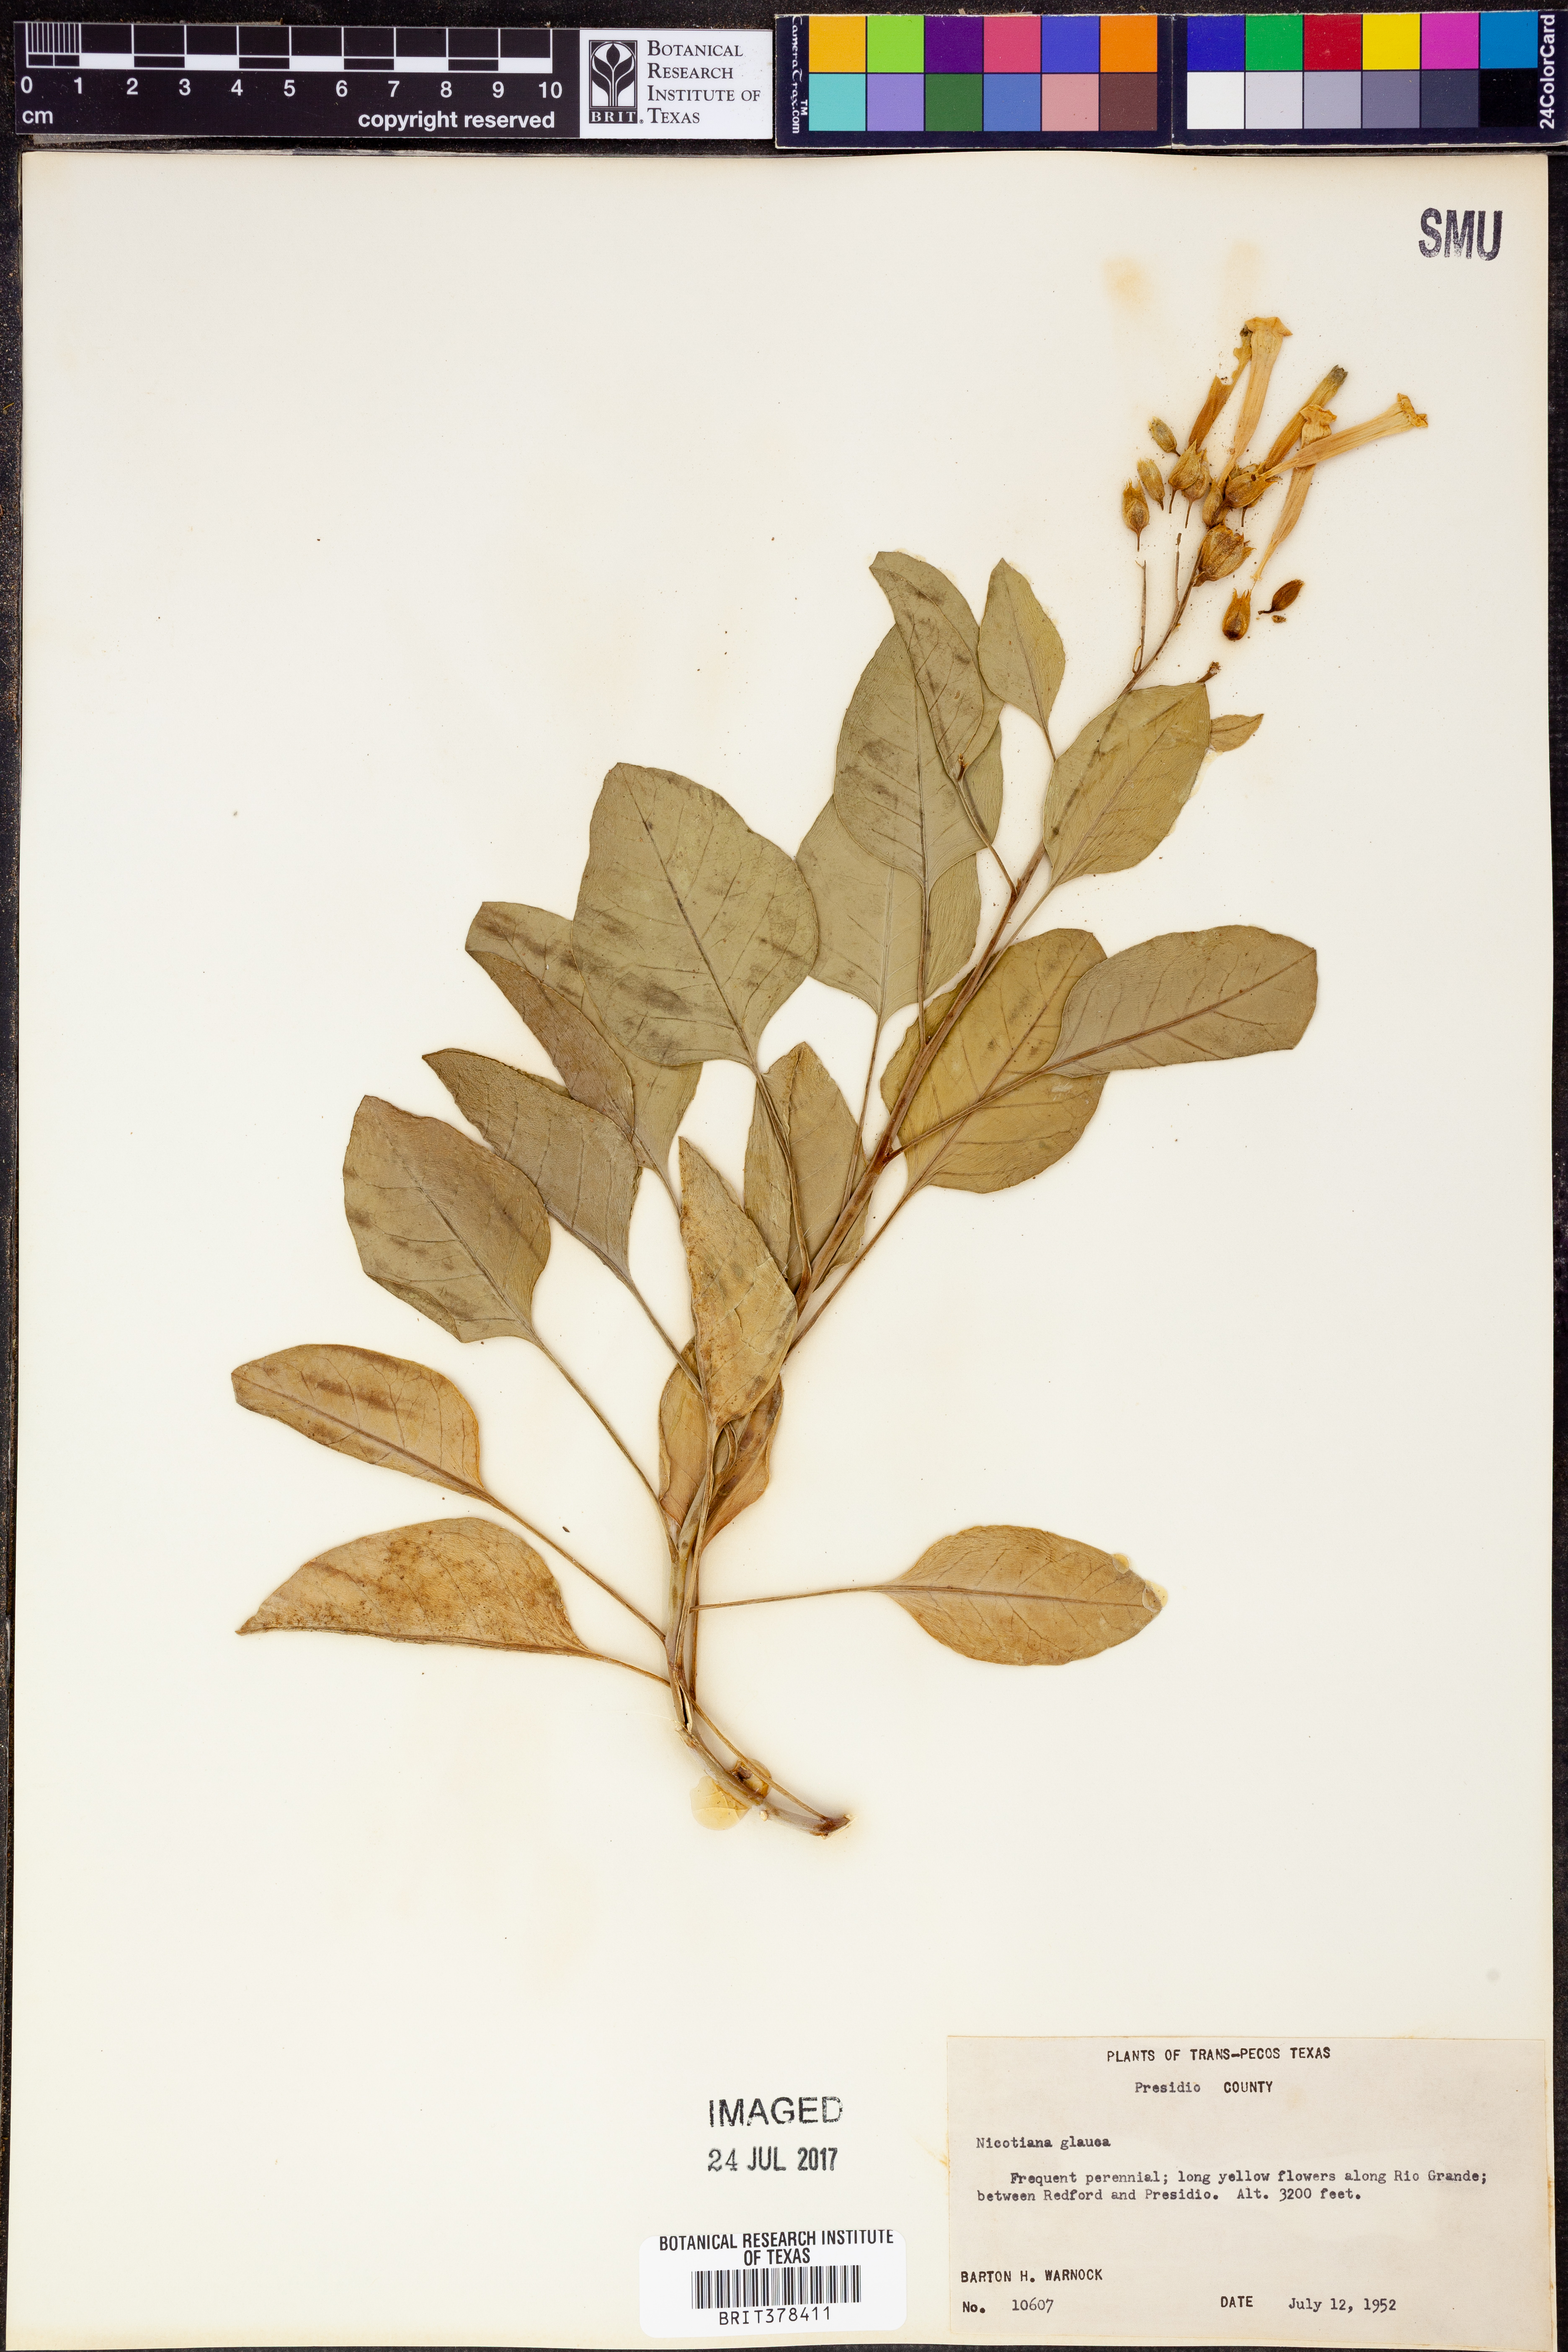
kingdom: Plantae
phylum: Tracheophyta
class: Magnoliopsida
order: Solanales
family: Solanaceae
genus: Nicotiana
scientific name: Nicotiana glauca
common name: Tree tobacco
